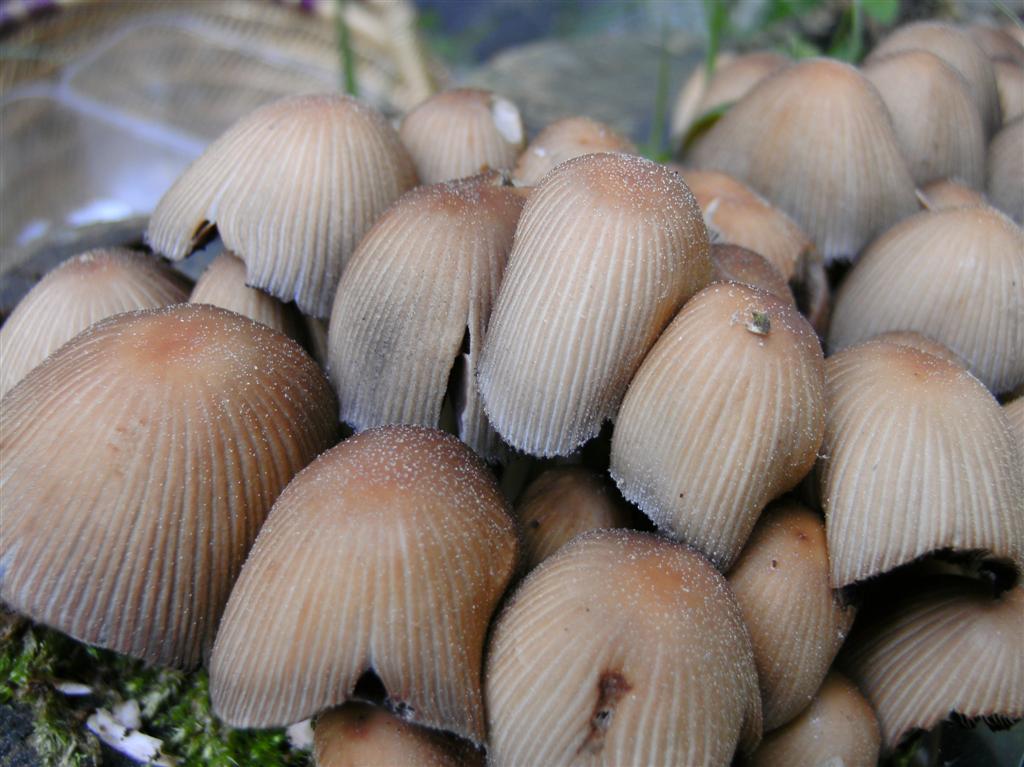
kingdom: Fungi
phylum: Basidiomycota
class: Agaricomycetes
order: Agaricales
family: Psathyrellaceae
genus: Coprinellus
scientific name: Coprinellus micaceus
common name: glimmer-blækhat
